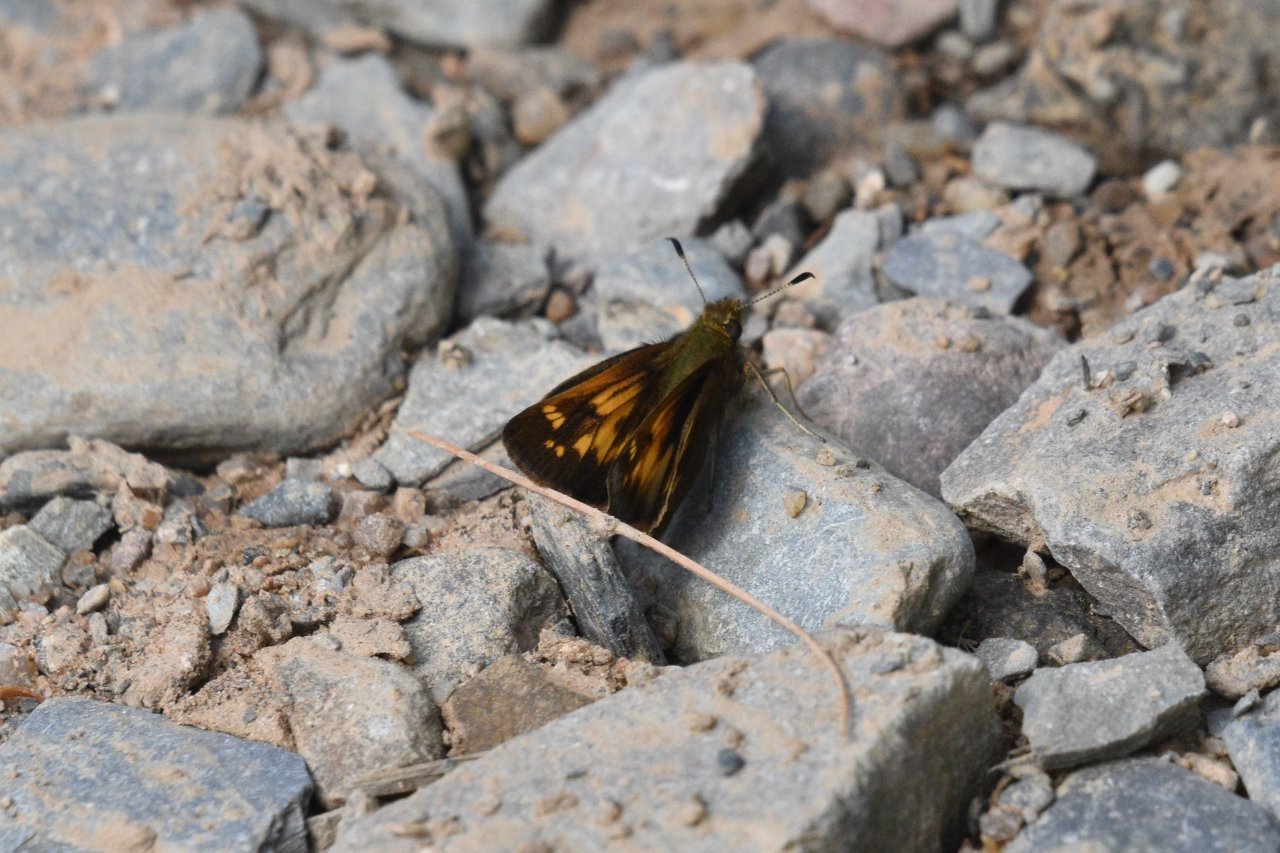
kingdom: Animalia
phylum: Arthropoda
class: Insecta
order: Lepidoptera
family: Hesperiidae
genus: Lon
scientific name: Lon hobomok
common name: Hobomok Skipper
